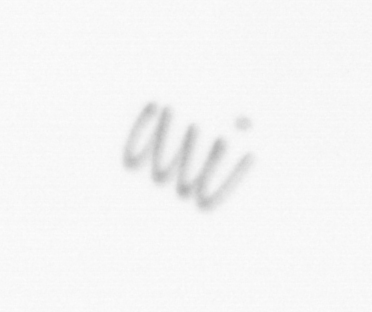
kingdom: Chromista
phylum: Ochrophyta
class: Bacillariophyceae
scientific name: Bacillariophyceae
